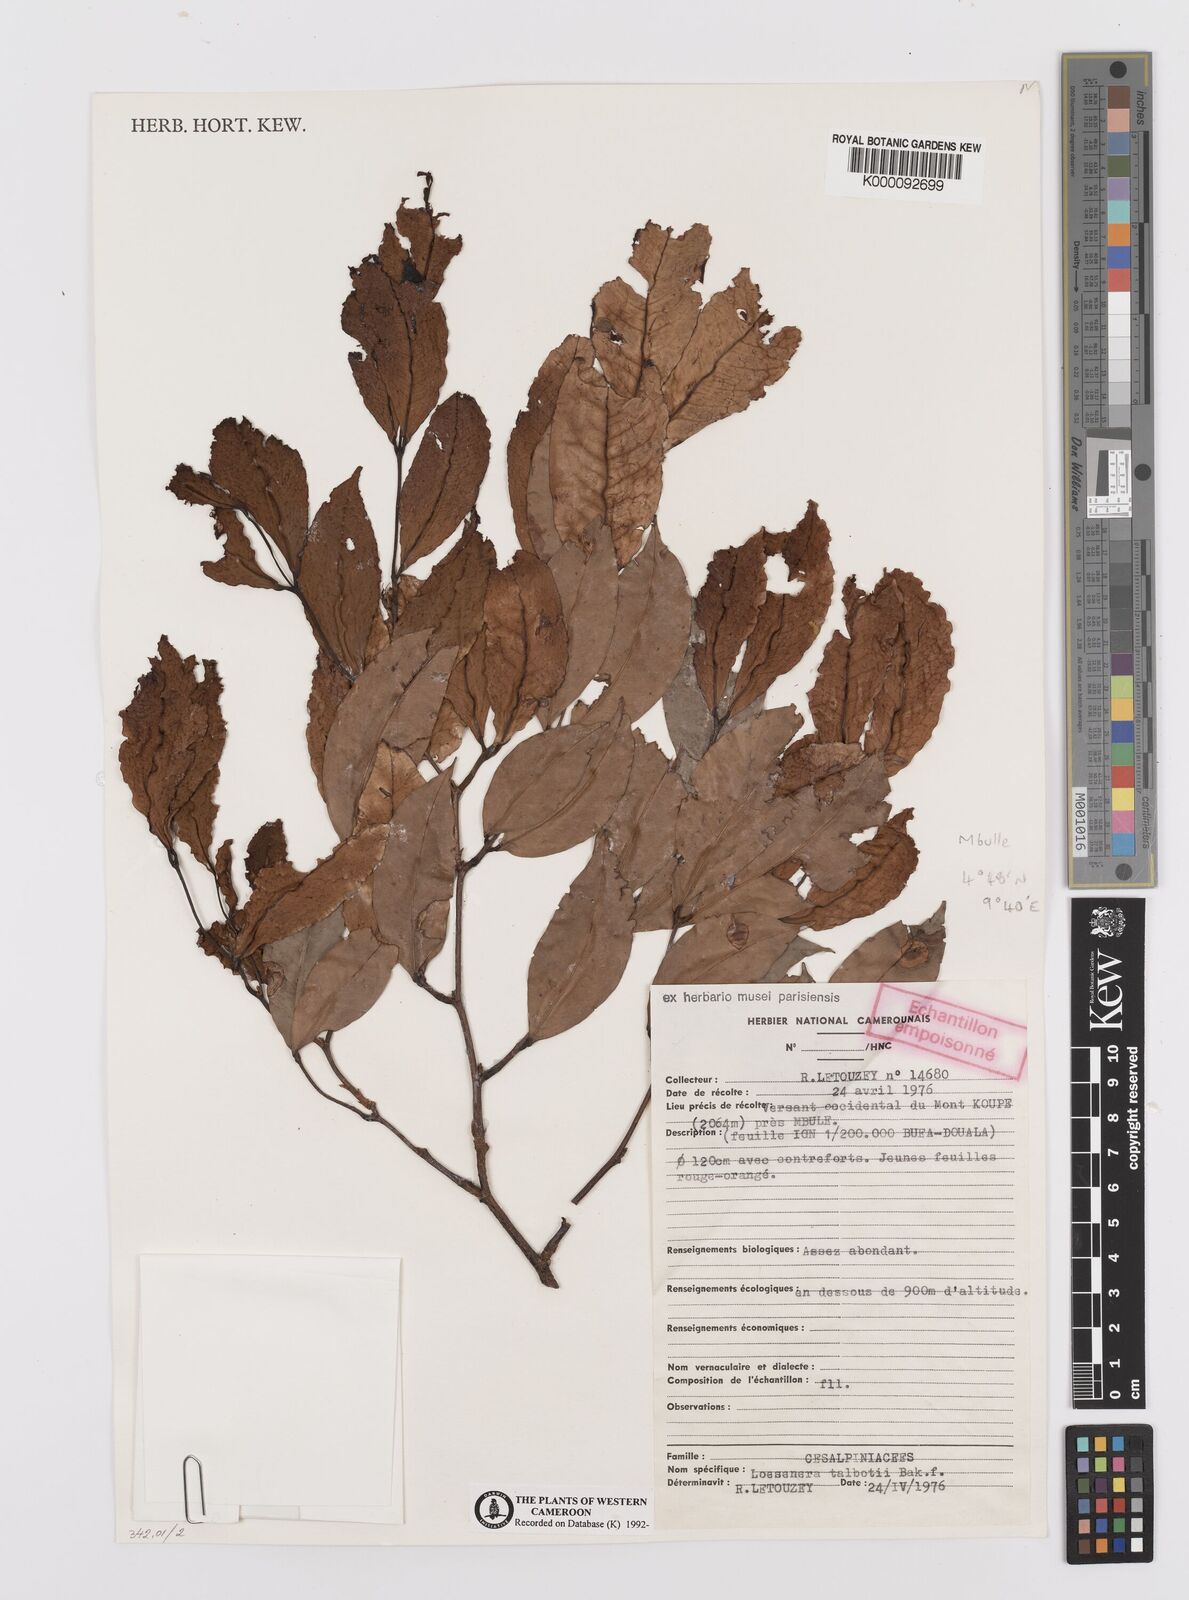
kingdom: Plantae
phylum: Tracheophyta
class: Magnoliopsida
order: Fabales
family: Fabaceae
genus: Loesenera
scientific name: Loesenera talbotii
